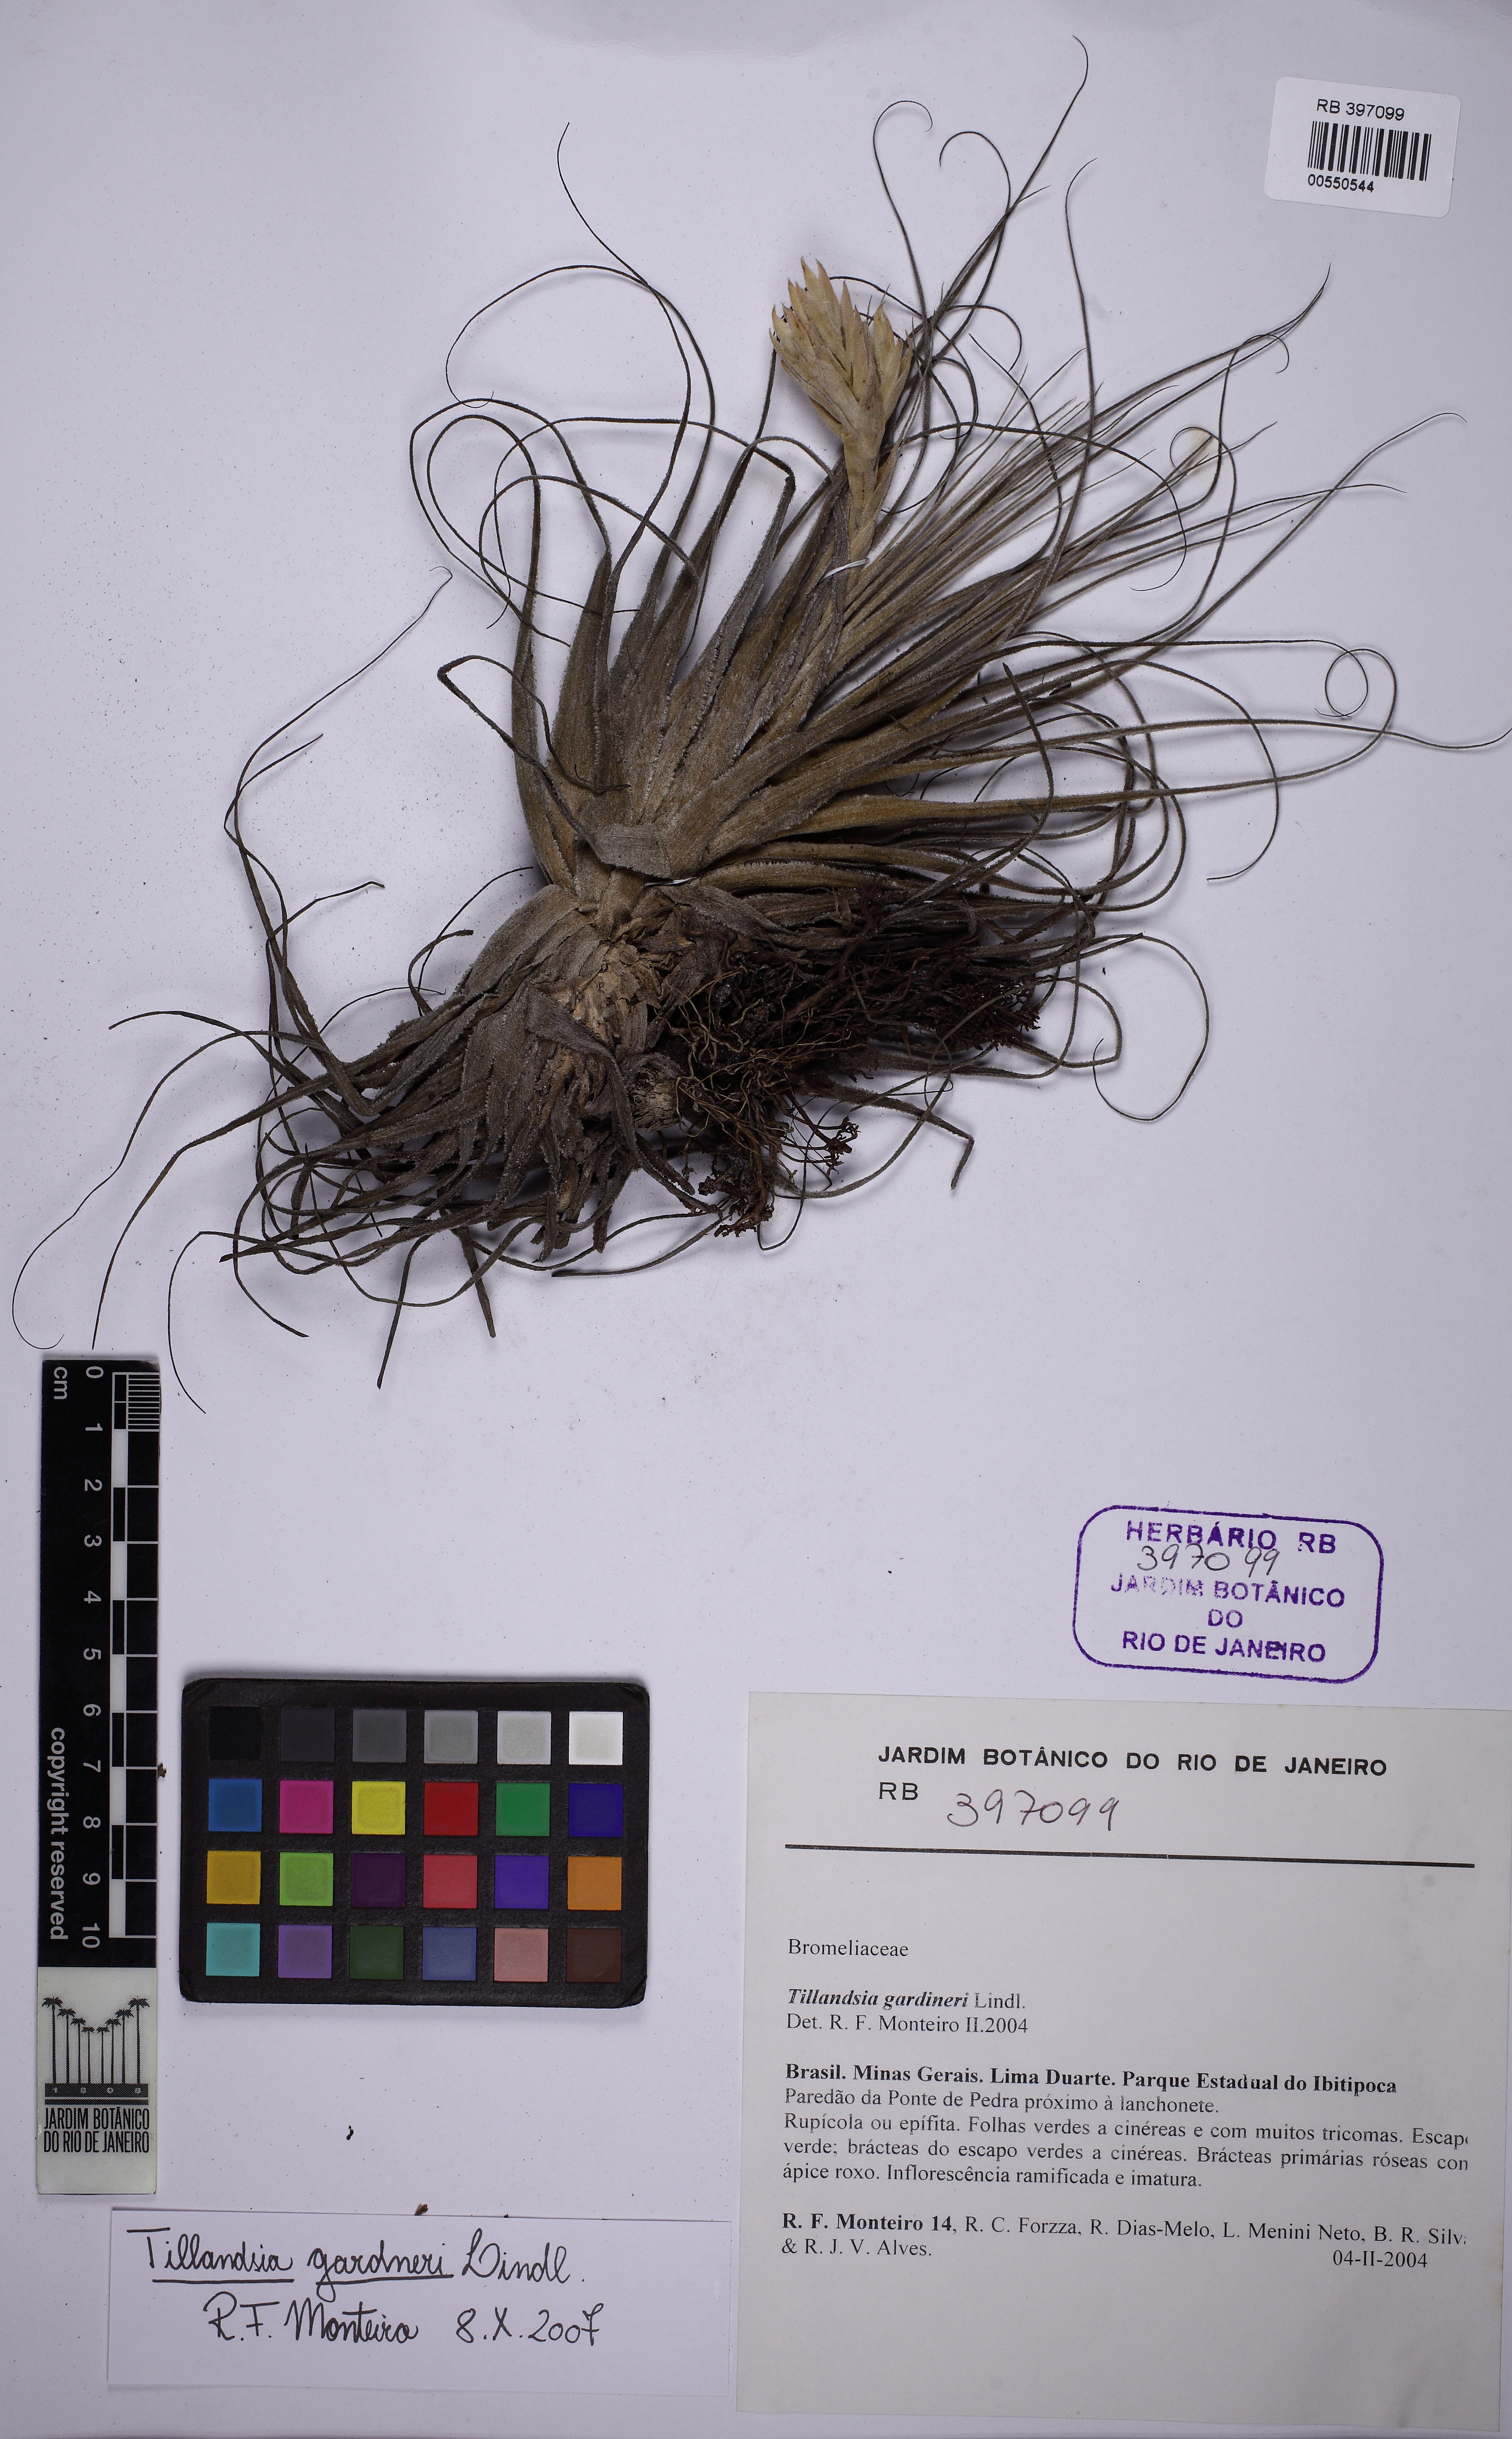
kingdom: Plantae
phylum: Tracheophyta
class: Liliopsida
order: Poales
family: Bromeliaceae
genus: Tillandsia
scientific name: Tillandsia gardneri
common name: Airplant
